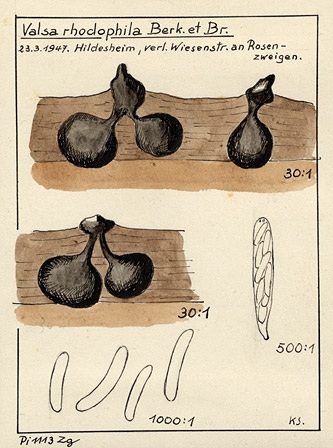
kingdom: Fungi
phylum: Ascomycota
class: Sordariomycetes
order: Diaporthales
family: Valsaceae
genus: Cytospora
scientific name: Cytospora populina
